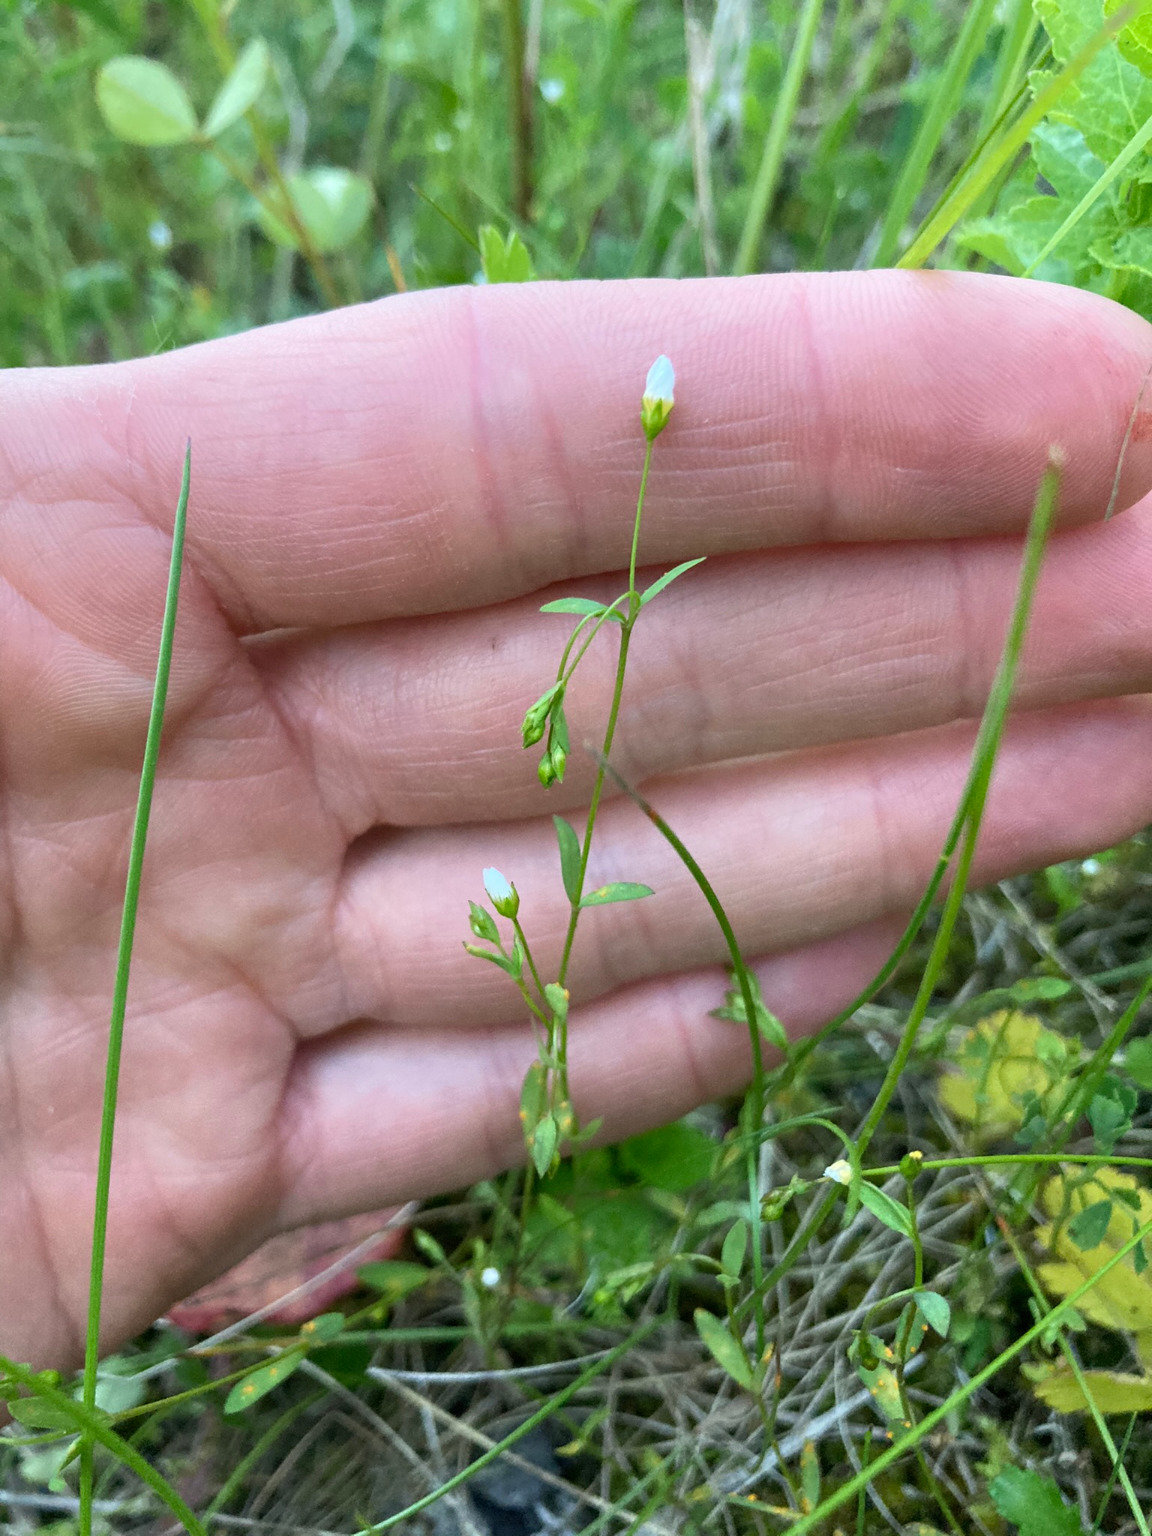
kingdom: Plantae
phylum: Tracheophyta
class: Magnoliopsida
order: Malpighiales
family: Linaceae
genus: Linum
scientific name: Linum catharticum
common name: Vild hør
